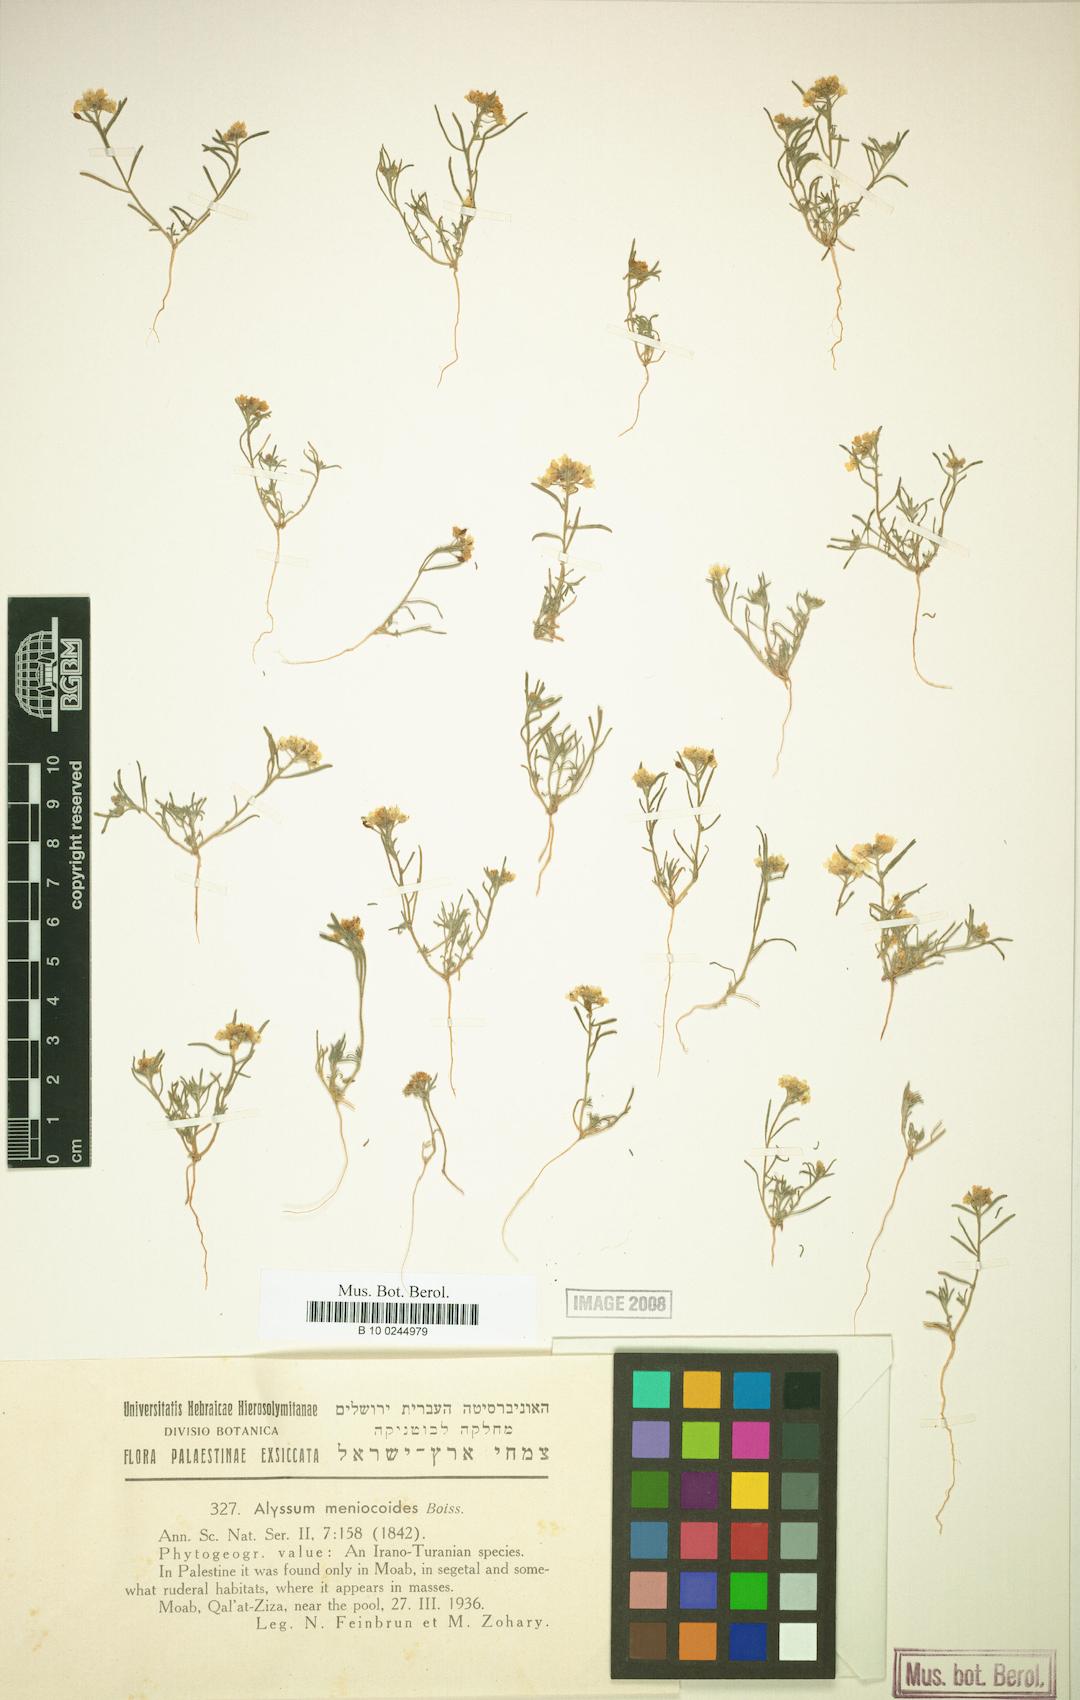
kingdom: Plantae
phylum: Tracheophyta
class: Magnoliopsida
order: Brassicales
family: Brassicaceae
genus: Meniocus
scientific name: Meniocus meniocoides
